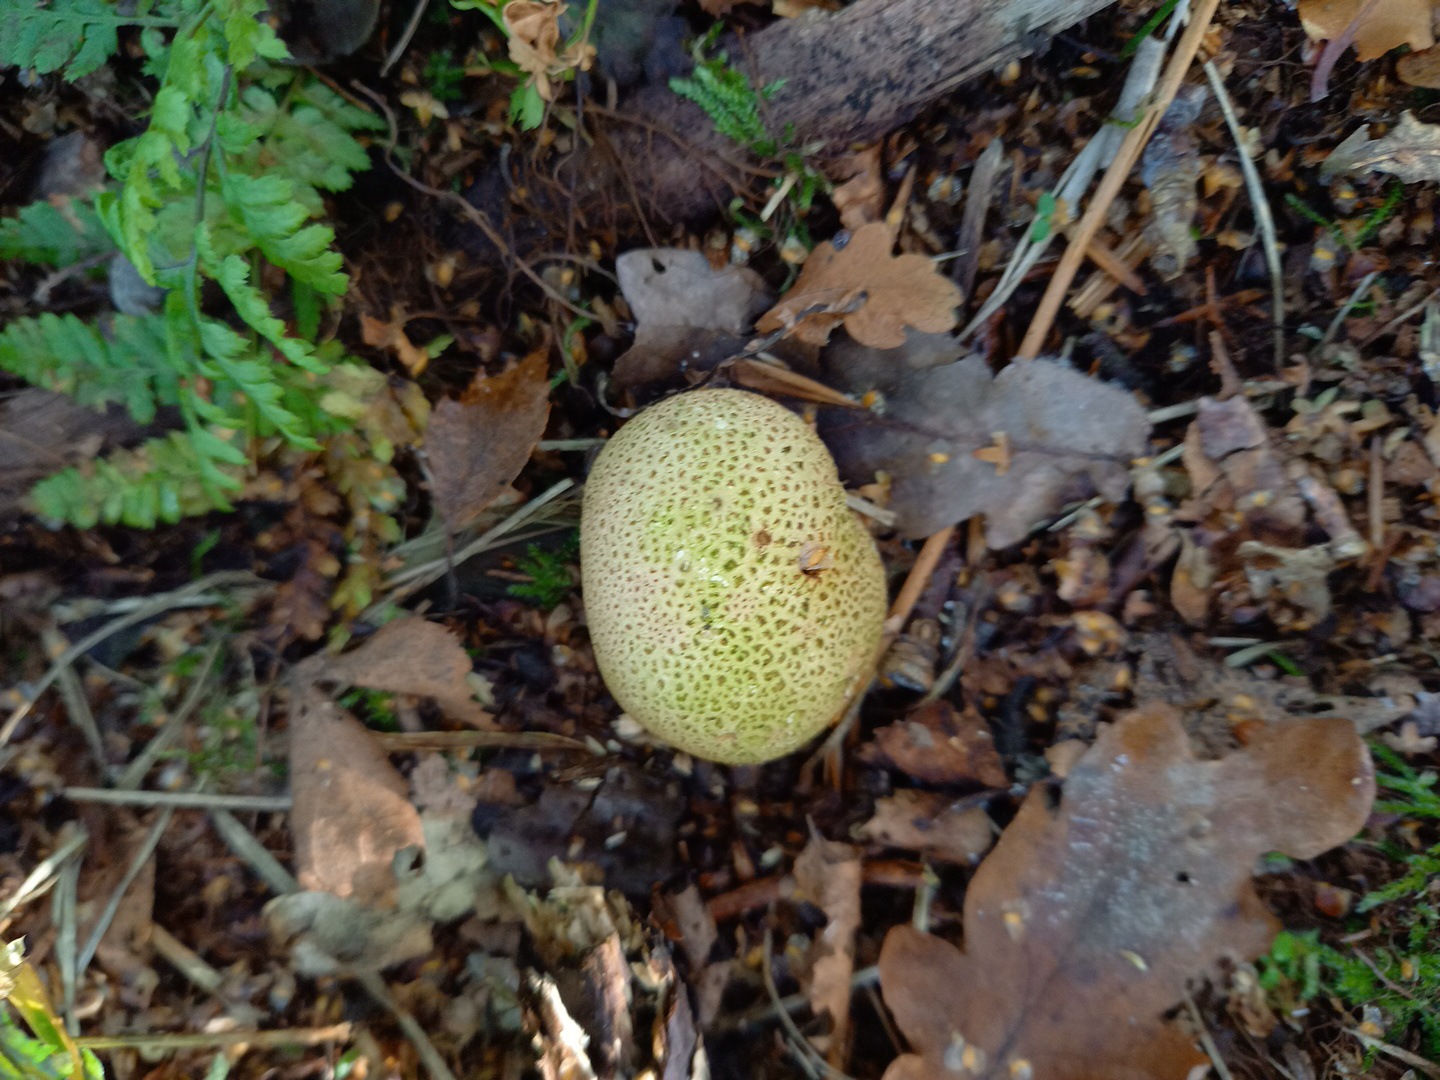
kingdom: Fungi
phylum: Basidiomycota
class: Agaricomycetes
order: Boletales
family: Sclerodermataceae
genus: Scleroderma
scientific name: Scleroderma citrinum
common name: almindelig bruskbold
